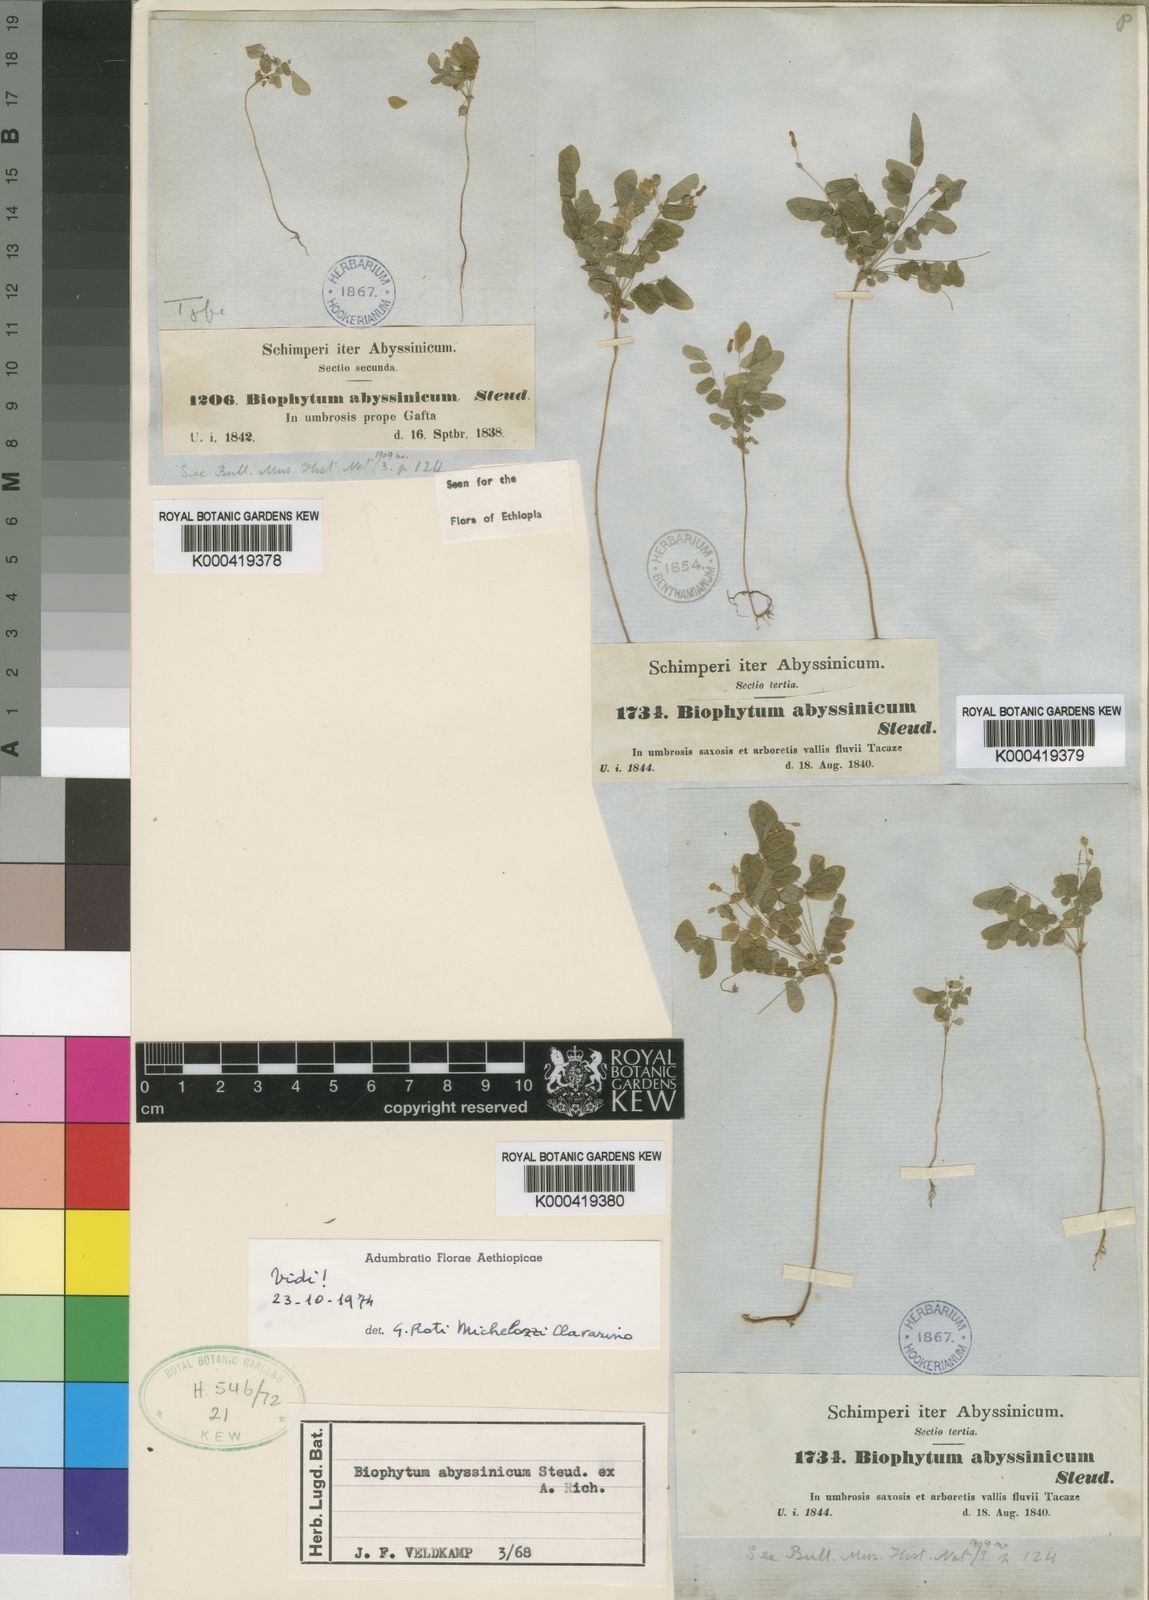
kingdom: Plantae
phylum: Tracheophyta
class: Magnoliopsida
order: Oxalidales
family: Oxalidaceae
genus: Biophytum
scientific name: Biophytum abyssinicum
